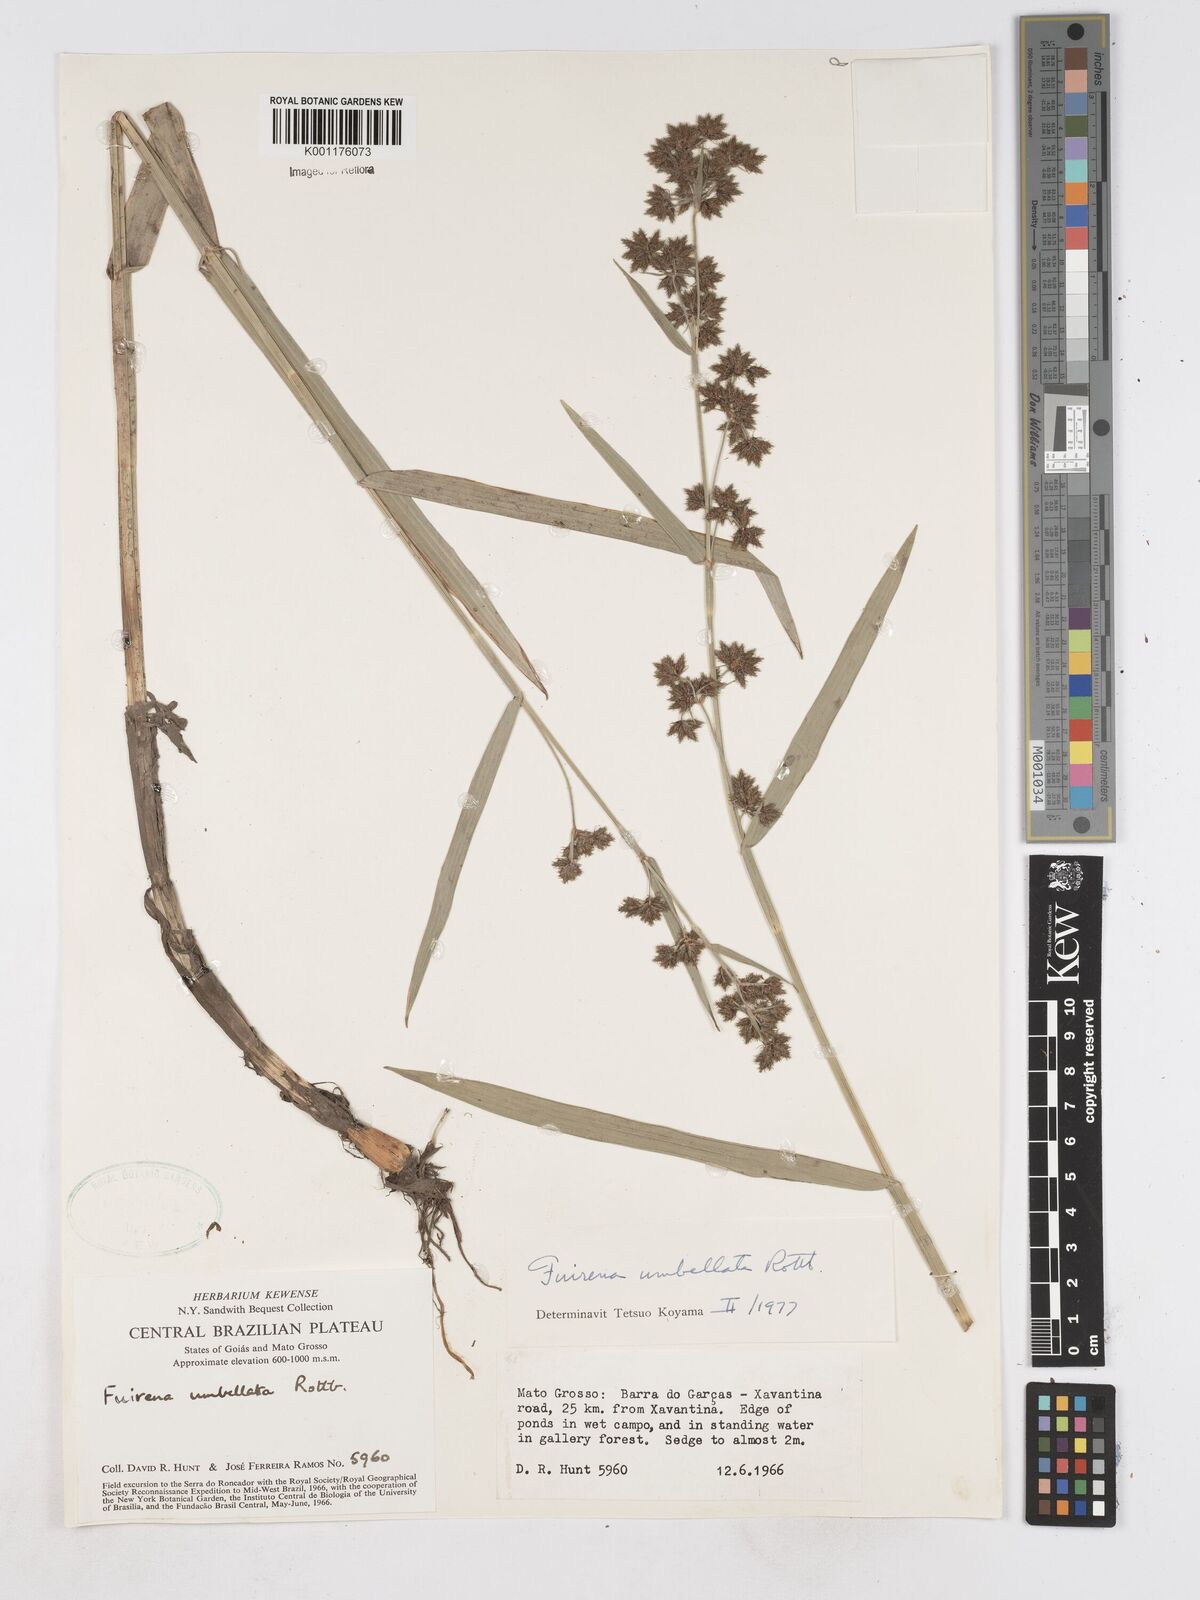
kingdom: Plantae
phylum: Tracheophyta
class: Liliopsida
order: Poales
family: Cyperaceae
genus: Fuirena
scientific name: Fuirena umbellata
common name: Yefen
